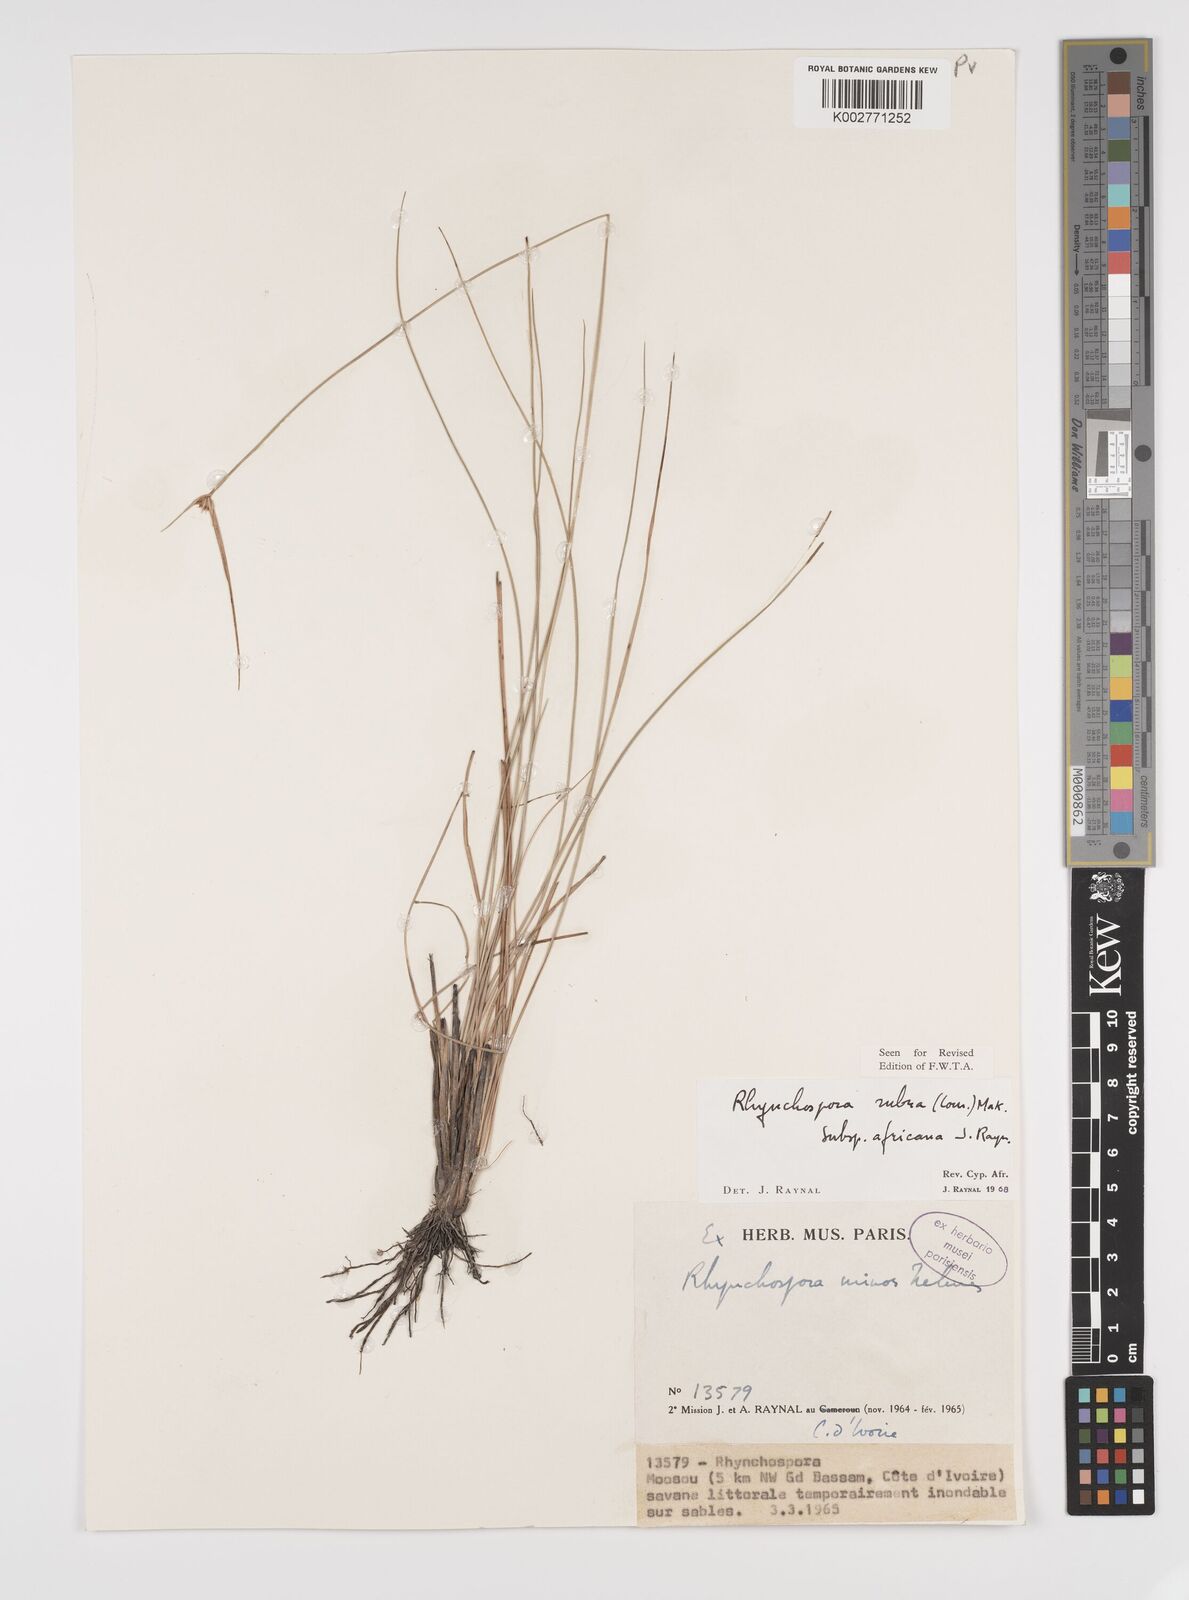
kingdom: Plantae
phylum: Tracheophyta
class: Liliopsida
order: Poales
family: Cyperaceae
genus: Rhynchospora
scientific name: Rhynchospora rubra
